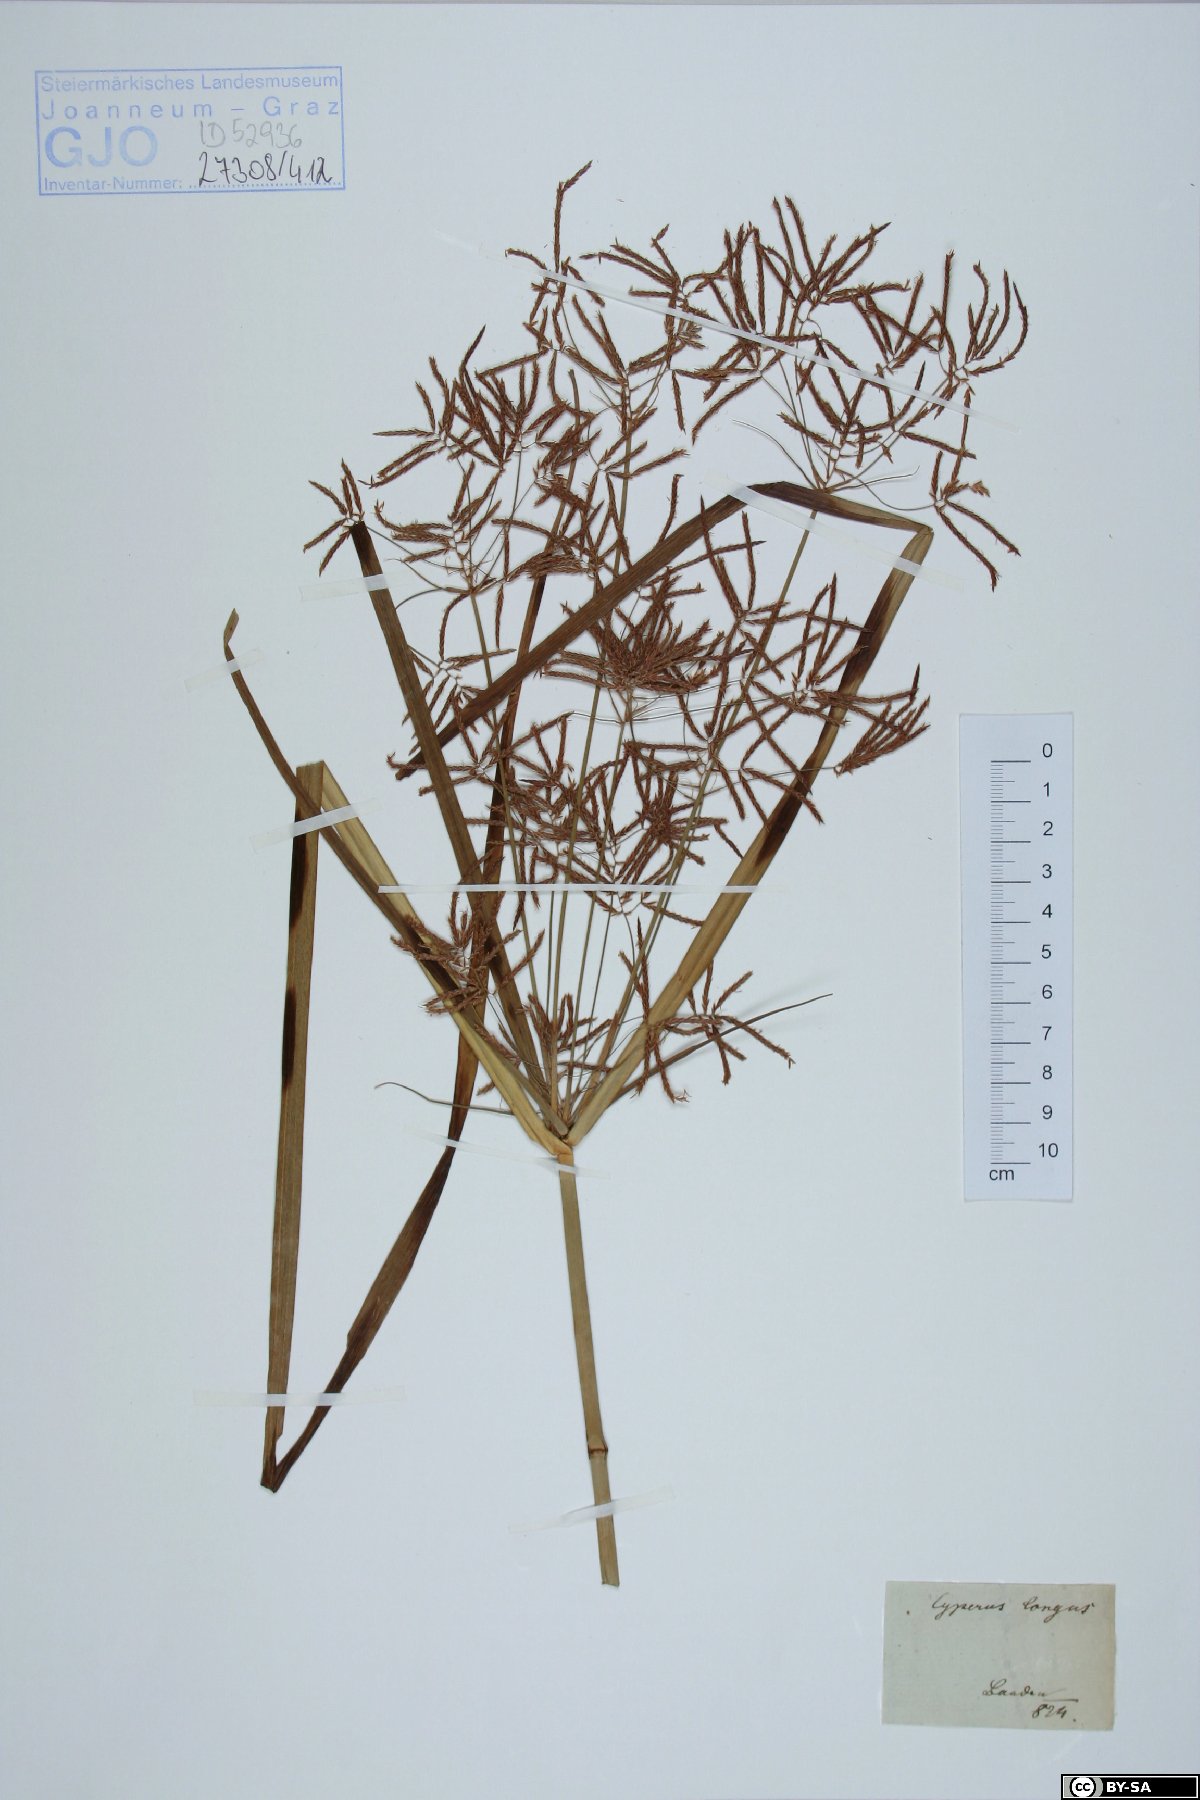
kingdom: Plantae
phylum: Tracheophyta
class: Liliopsida
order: Poales
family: Cyperaceae
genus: Cyperus
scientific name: Cyperus longus
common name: Galingale
